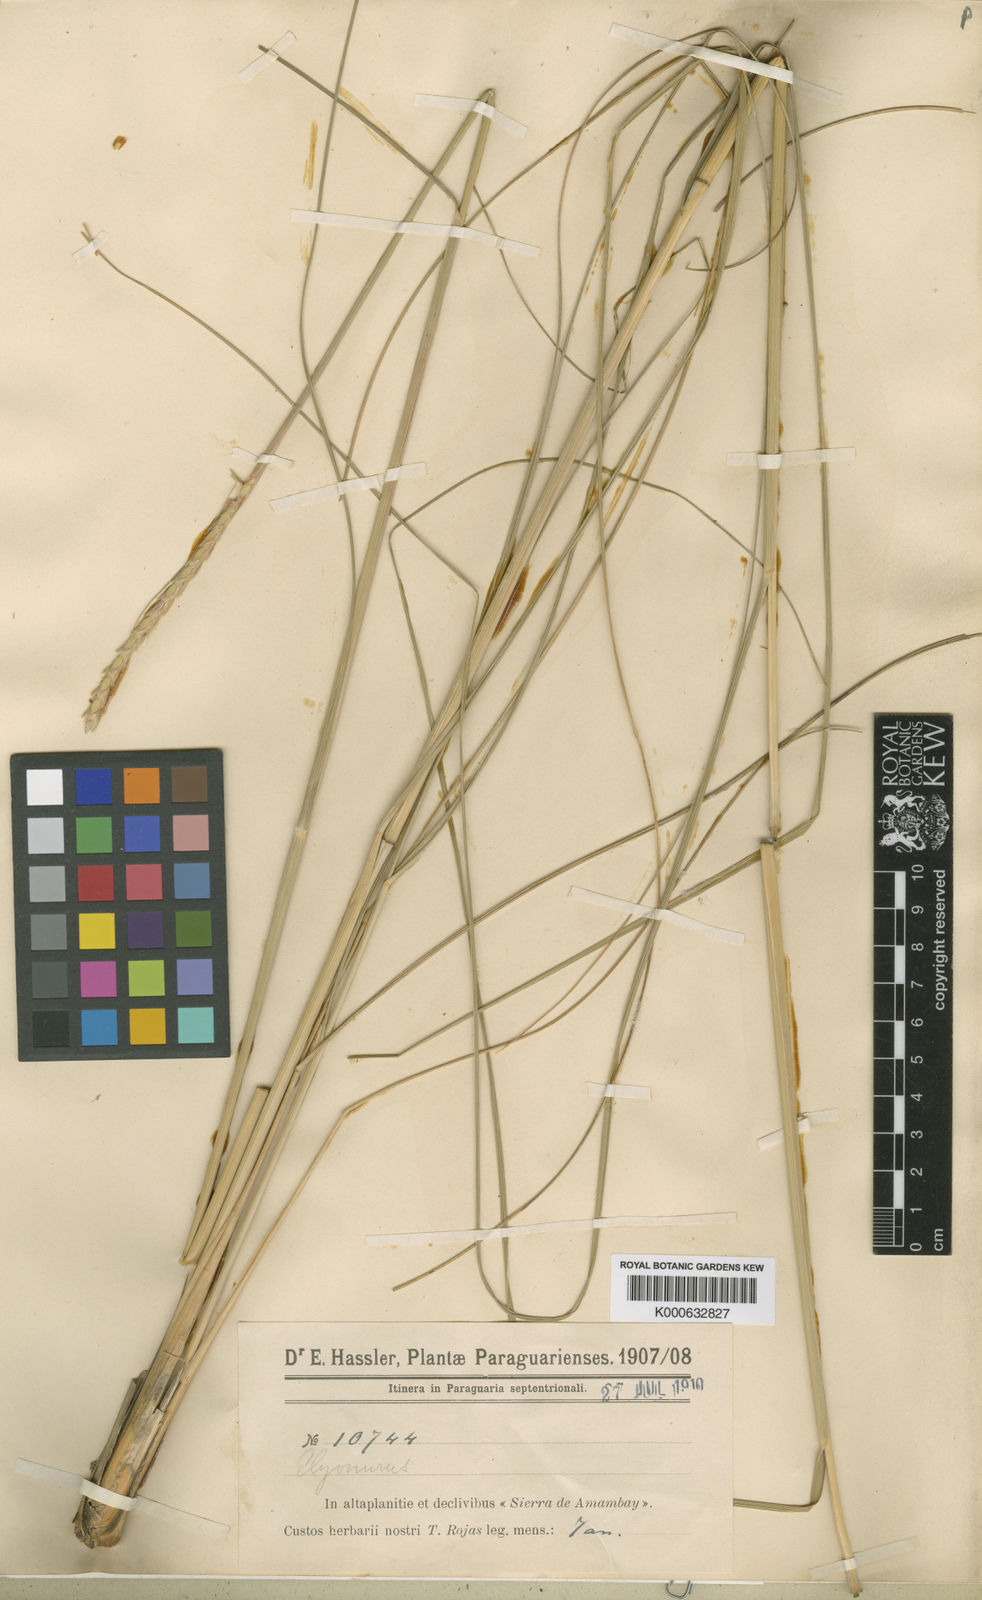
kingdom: Plantae
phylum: Tracheophyta
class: Liliopsida
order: Poales
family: Poaceae
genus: Elionurus
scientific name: Elionurus tripsacoides
